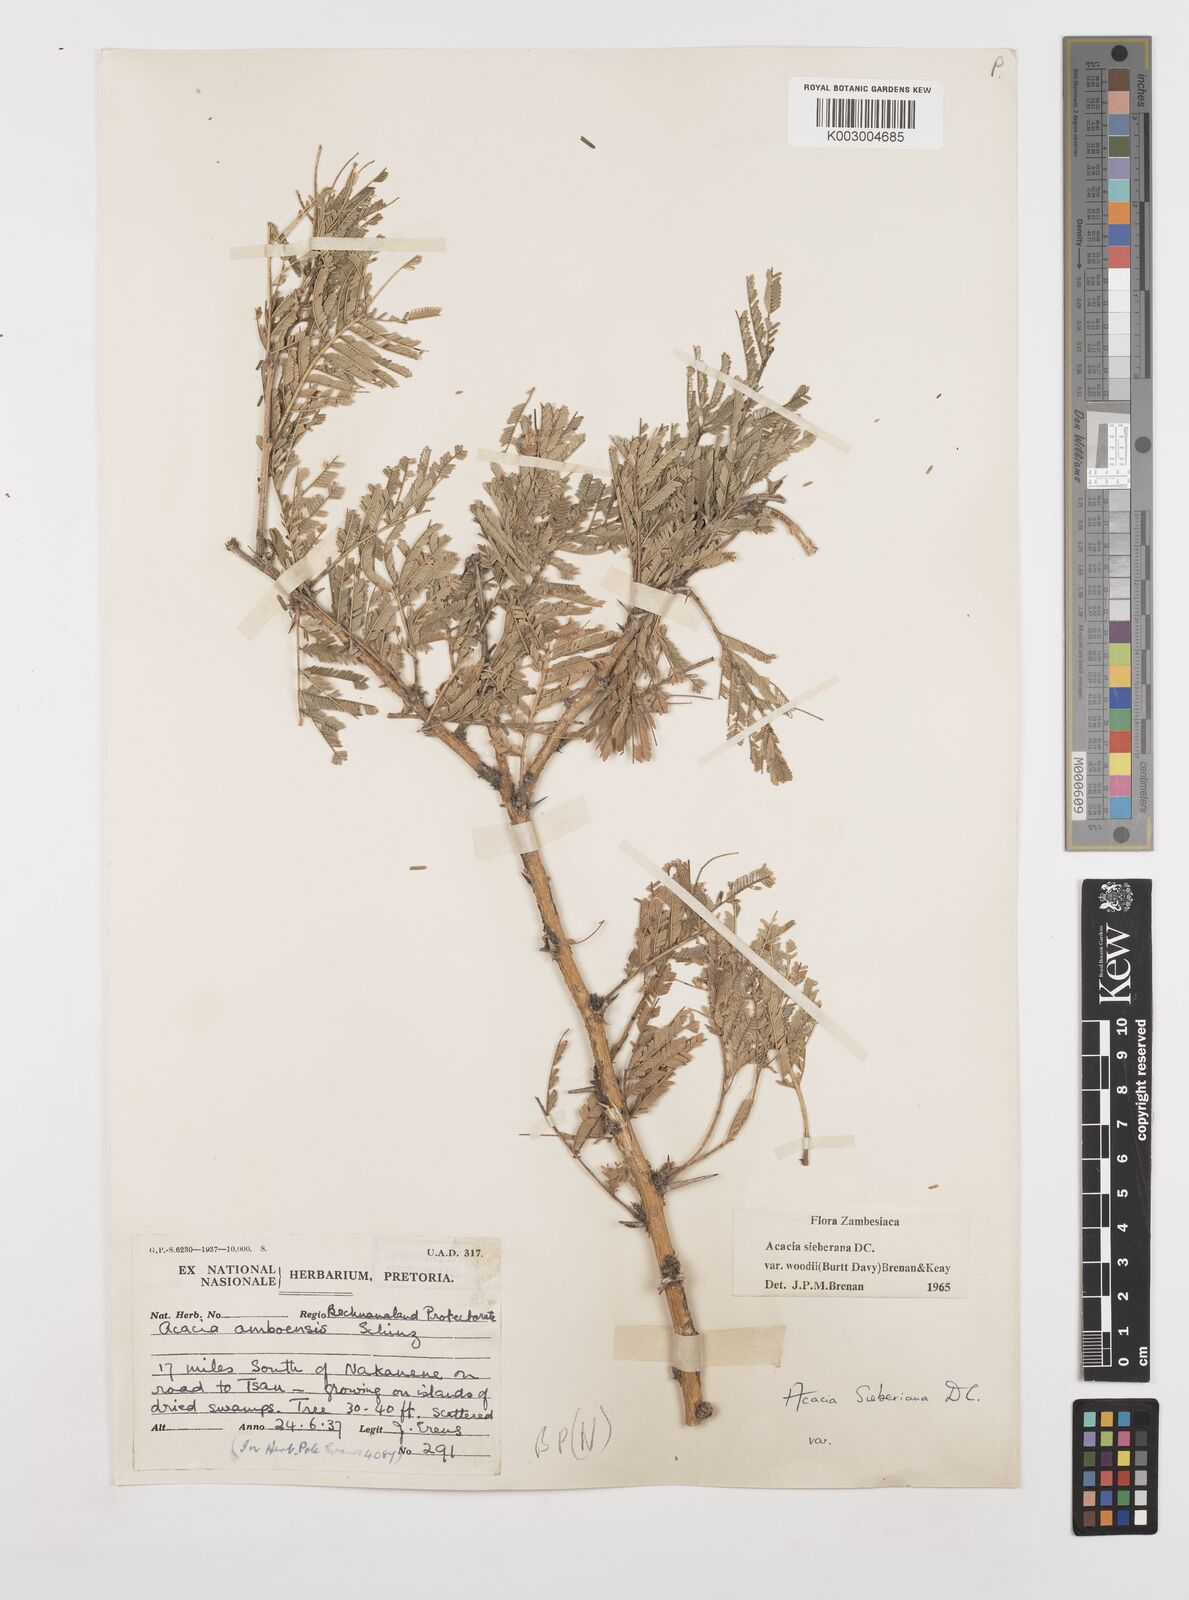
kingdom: Plantae
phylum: Tracheophyta
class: Magnoliopsida
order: Fabales
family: Fabaceae
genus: Vachellia
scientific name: Vachellia sieberiana
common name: Flat-topped thorn
